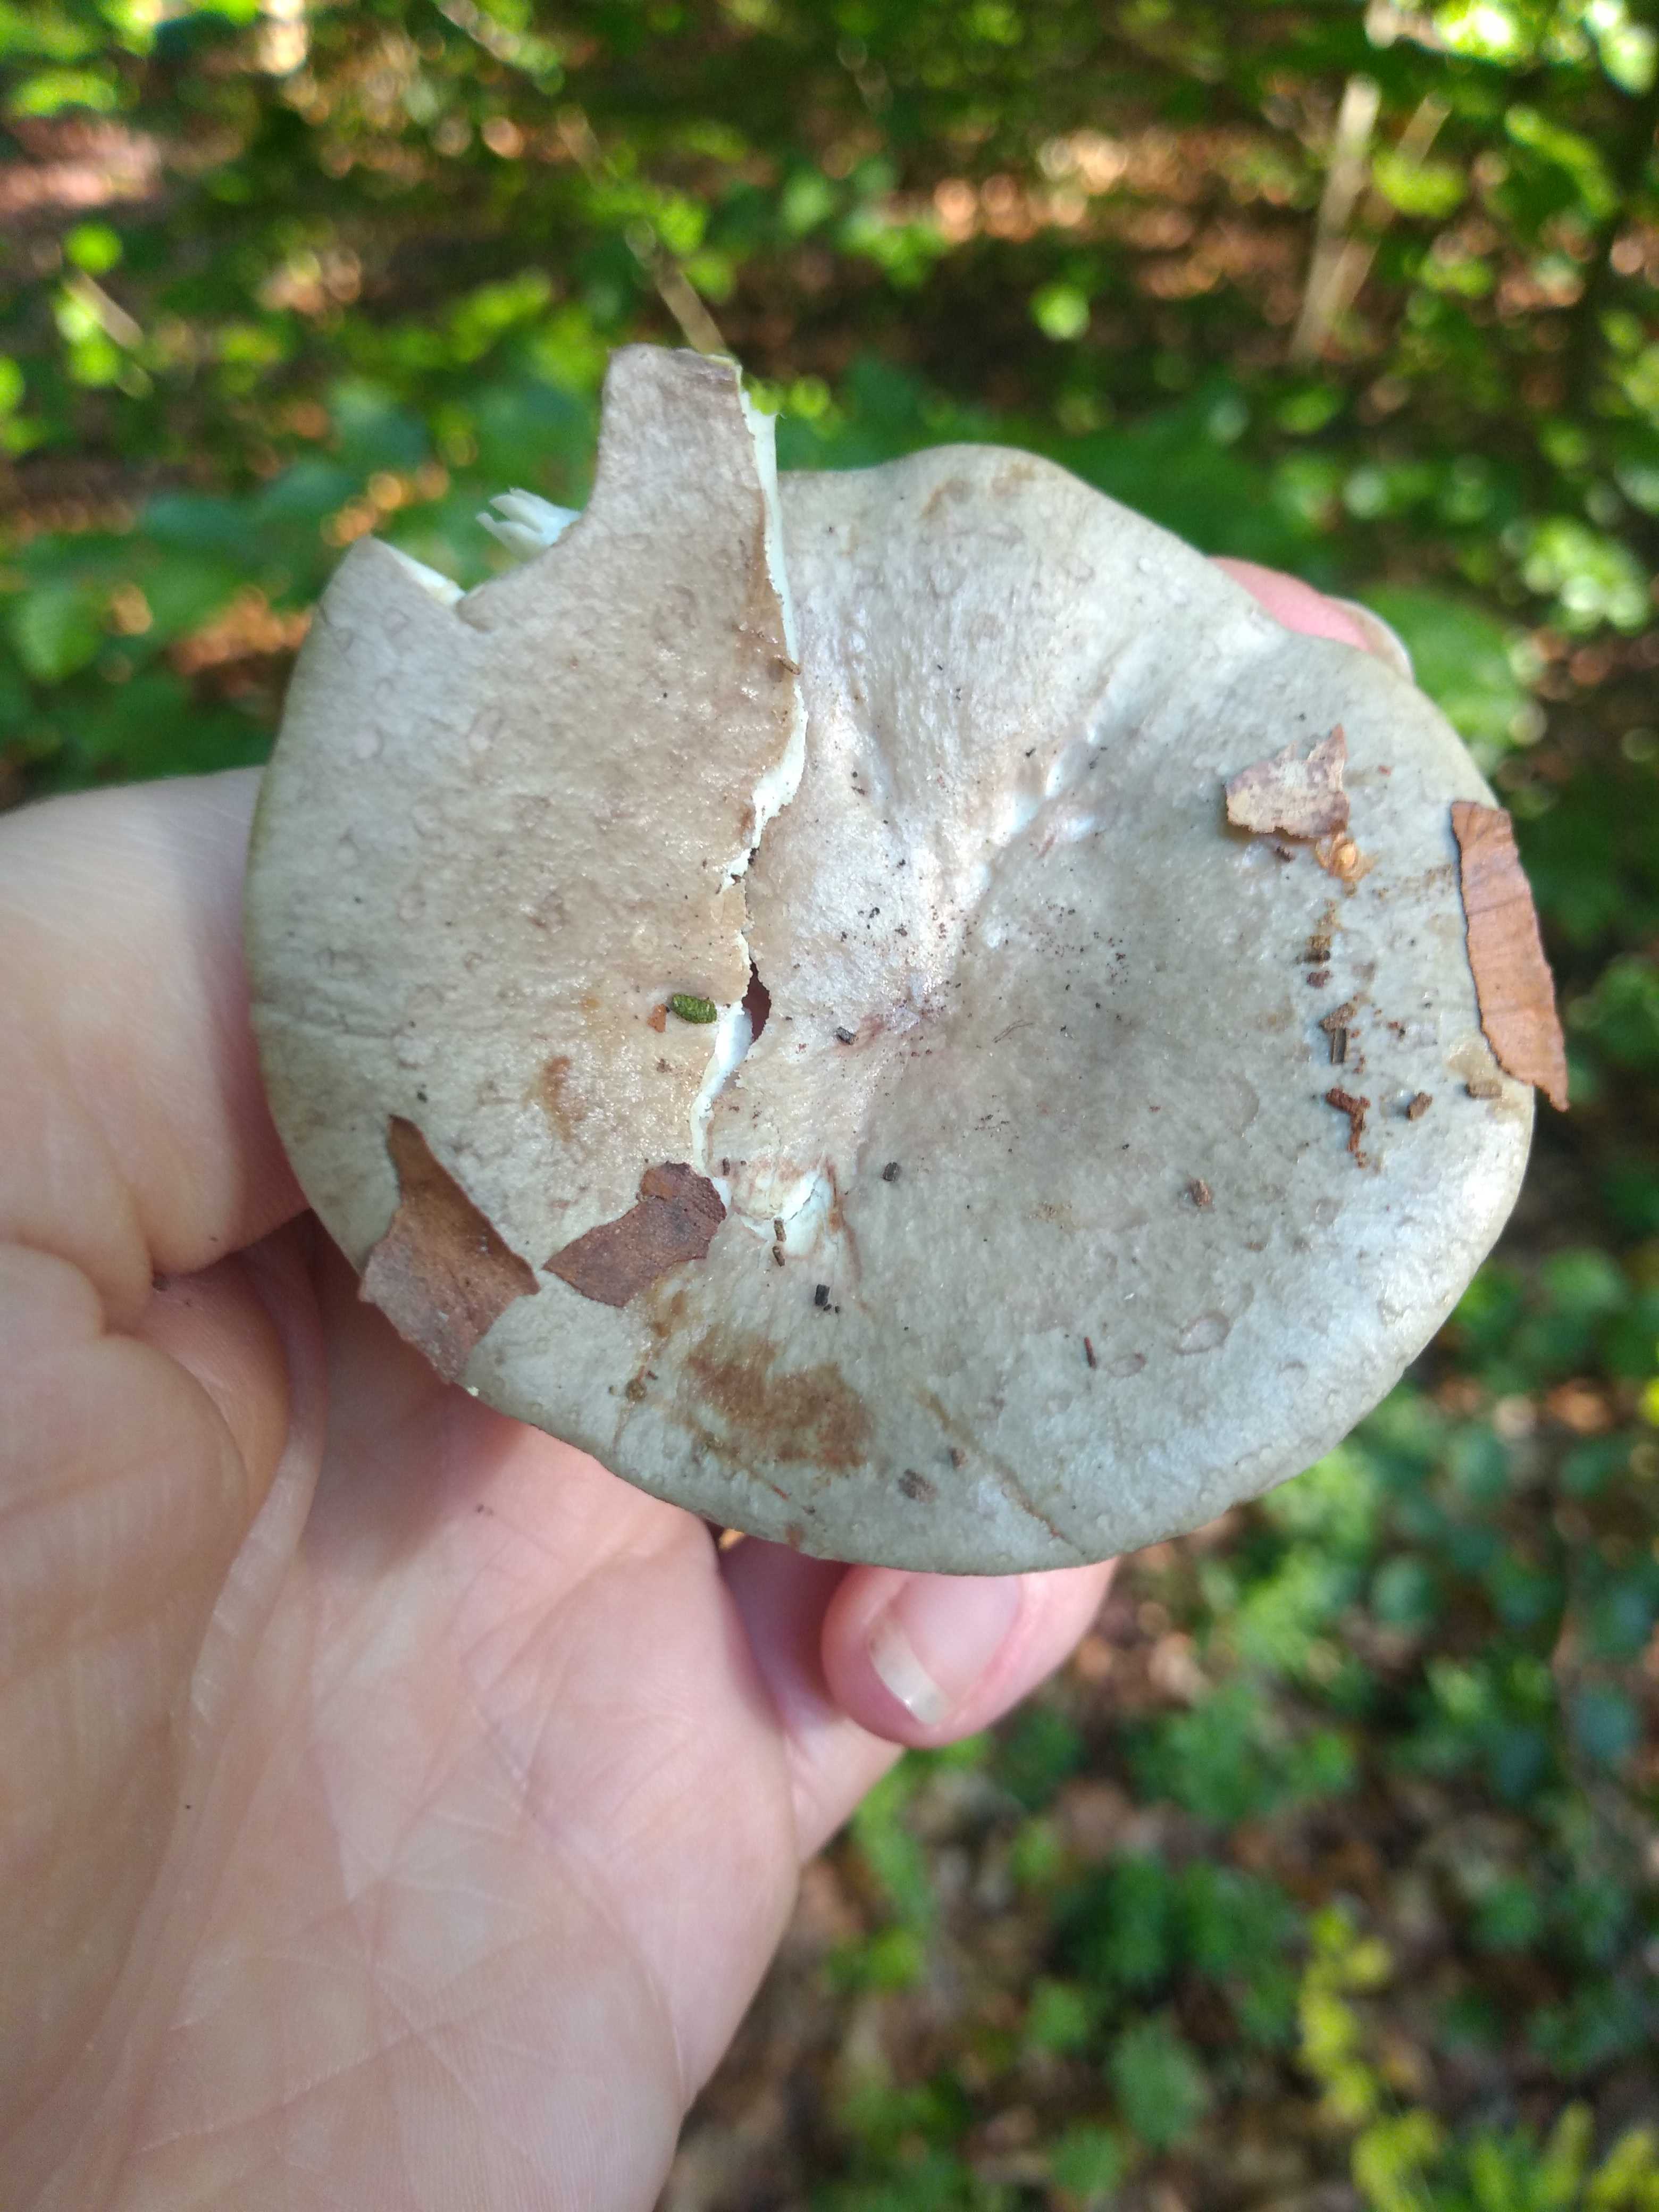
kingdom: Fungi
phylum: Basidiomycota
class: Agaricomycetes
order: Russulales
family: Russulaceae
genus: Lactarius
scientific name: Lactarius blennius
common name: dråbeplettet mælkehat
